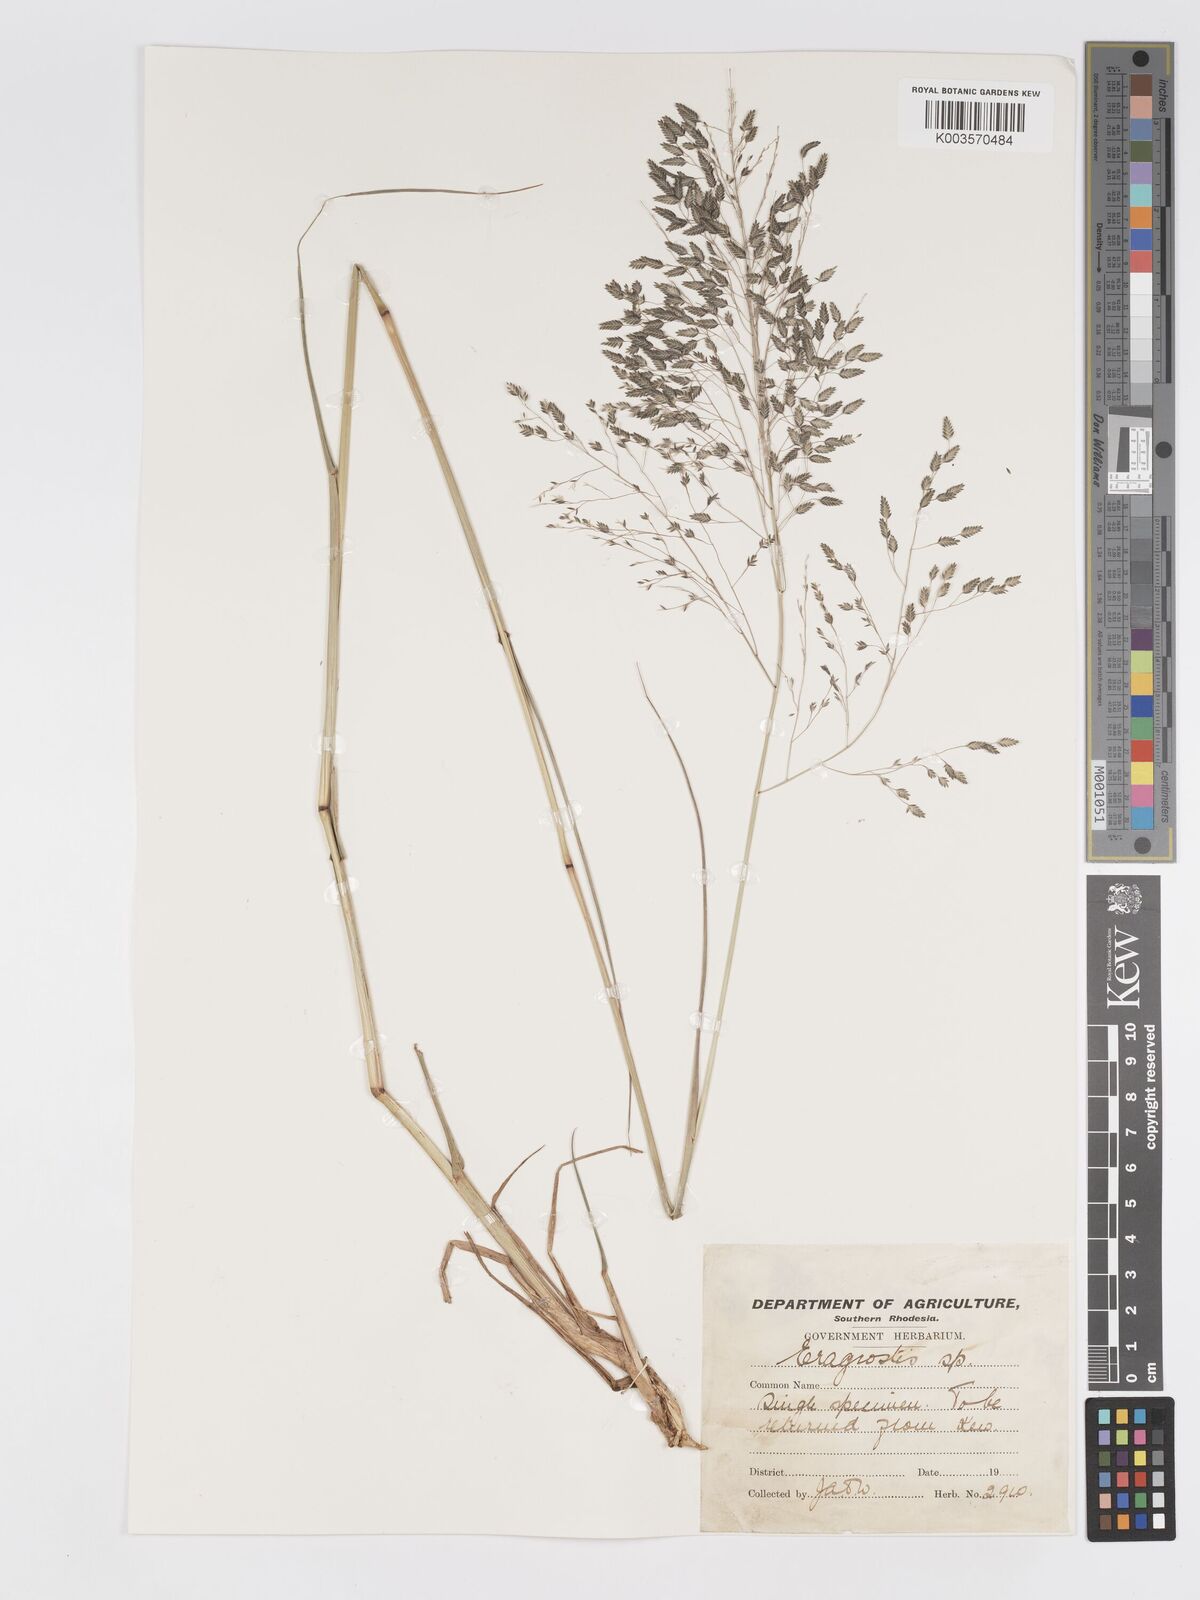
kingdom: Plantae
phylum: Tracheophyta
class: Liliopsida
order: Poales
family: Poaceae
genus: Eragrostis
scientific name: Eragrostis inamoena
